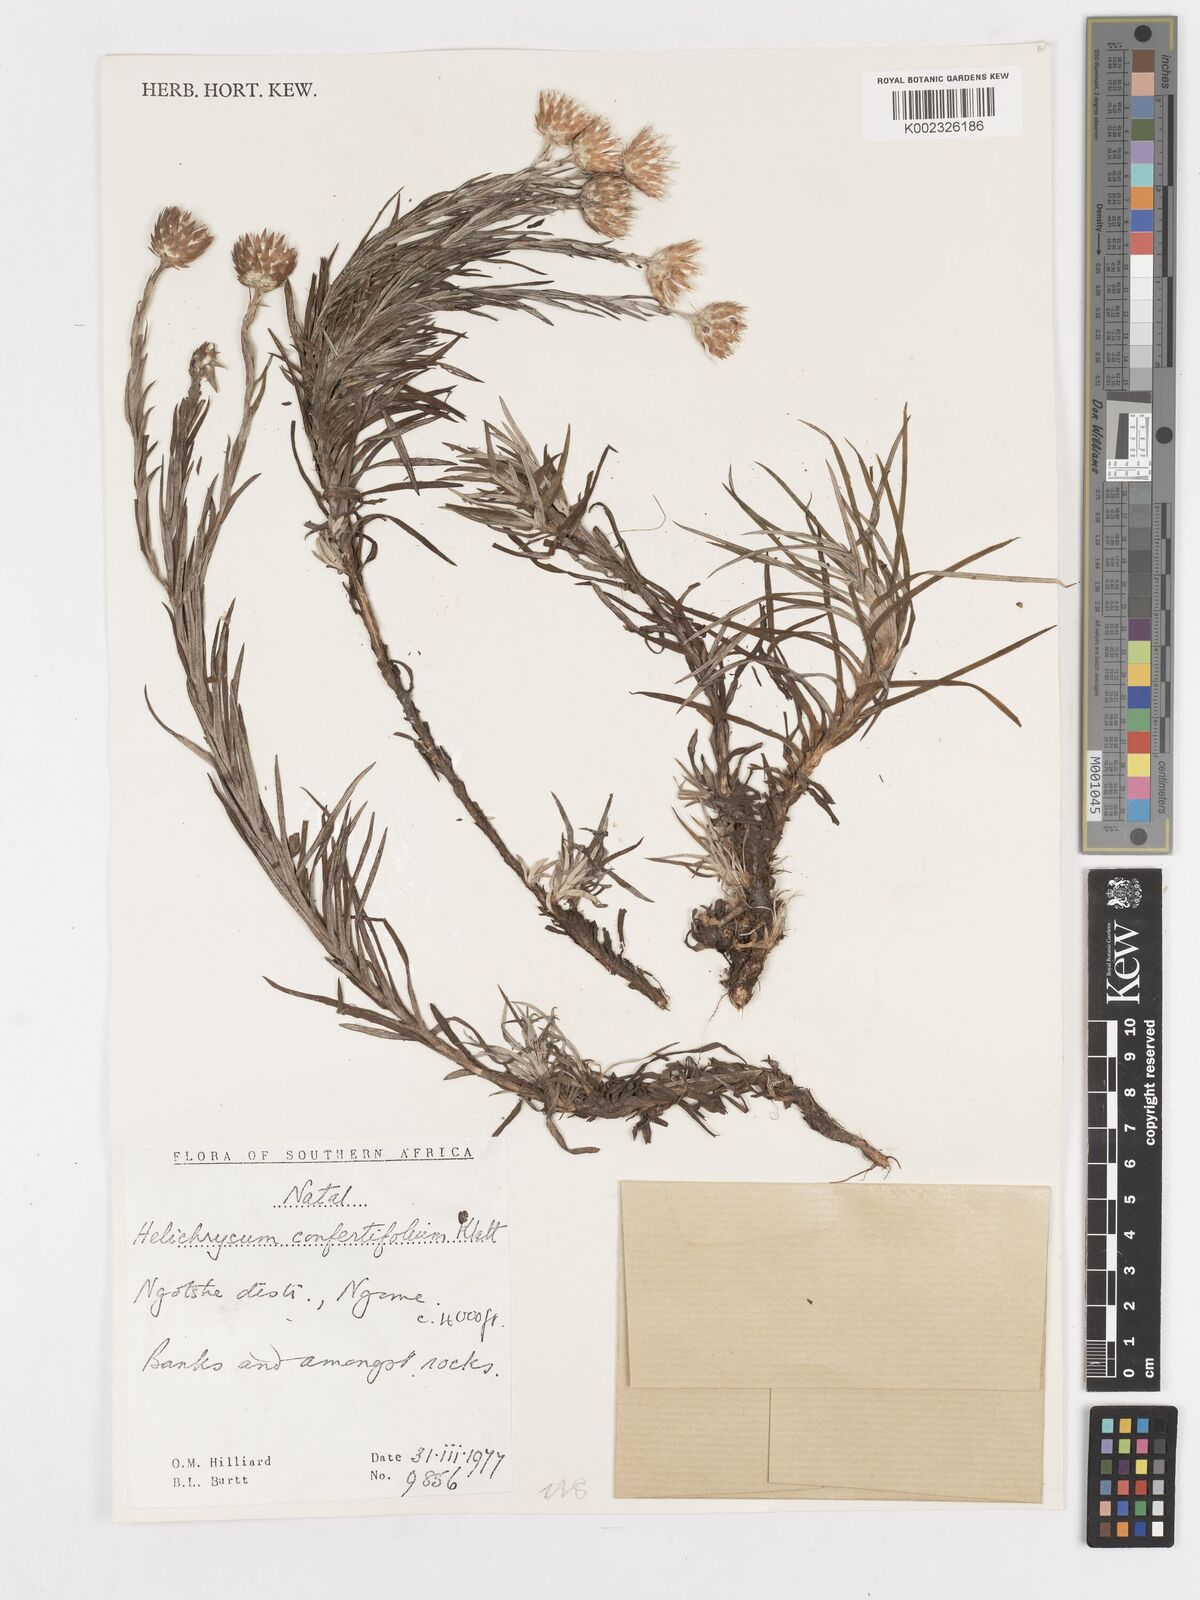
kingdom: Plantae
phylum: Tracheophyta
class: Magnoliopsida
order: Asterales
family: Asteraceae
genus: Helichrysum
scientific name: Helichrysum confertifolium
